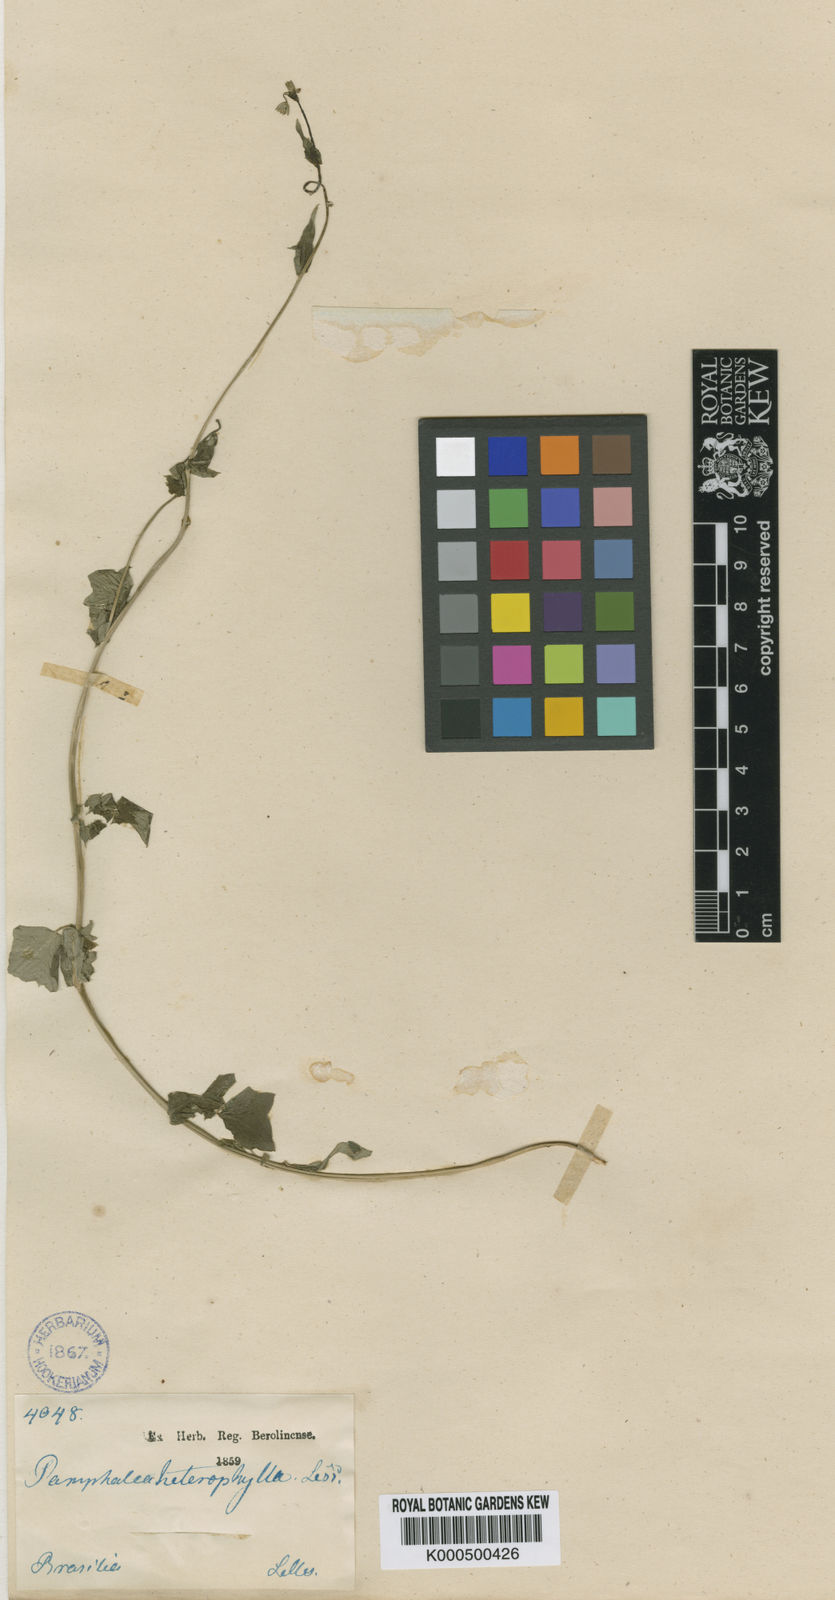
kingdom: Plantae
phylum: Tracheophyta
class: Magnoliopsida
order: Asterales
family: Asteraceae
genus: Panphalea
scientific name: Panphalea heterophylla
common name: Daisy
